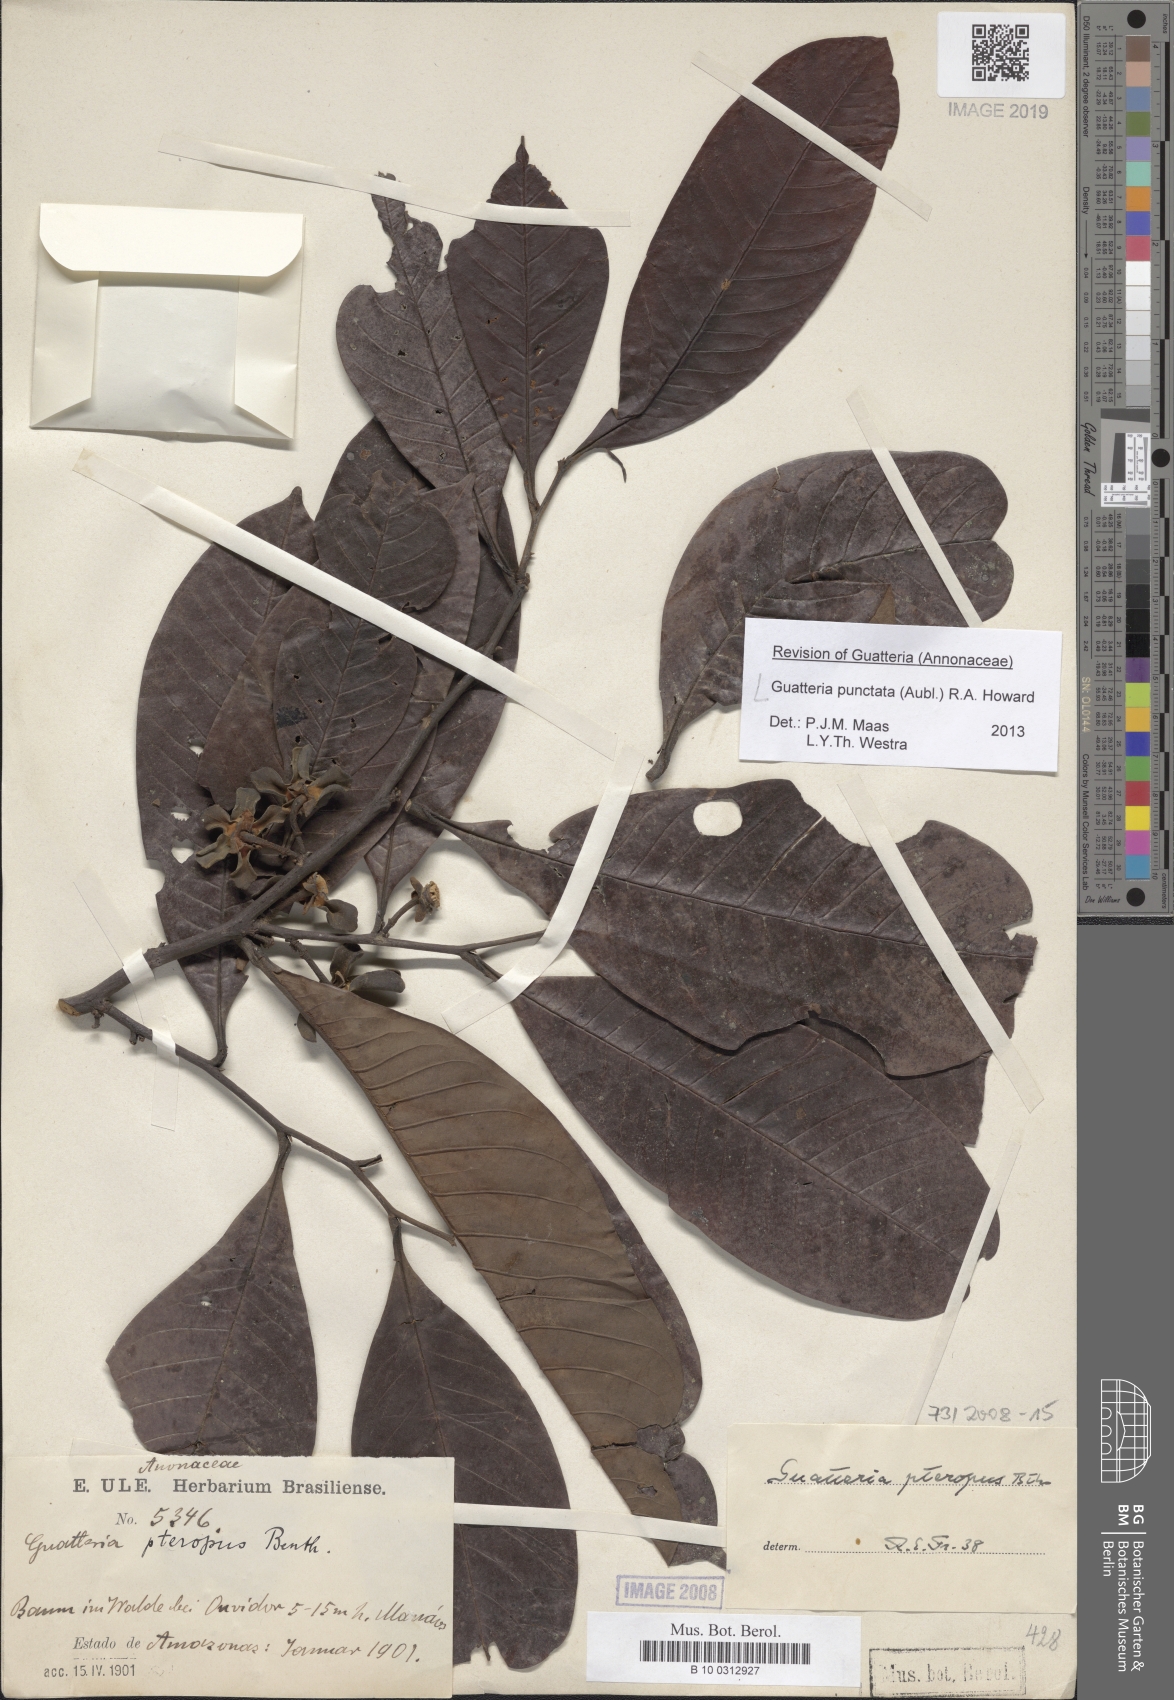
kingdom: Plantae
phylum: Tracheophyta
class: Magnoliopsida
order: Magnoliales
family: Annonaceae
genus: Guatteria
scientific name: Guatteria punctata
